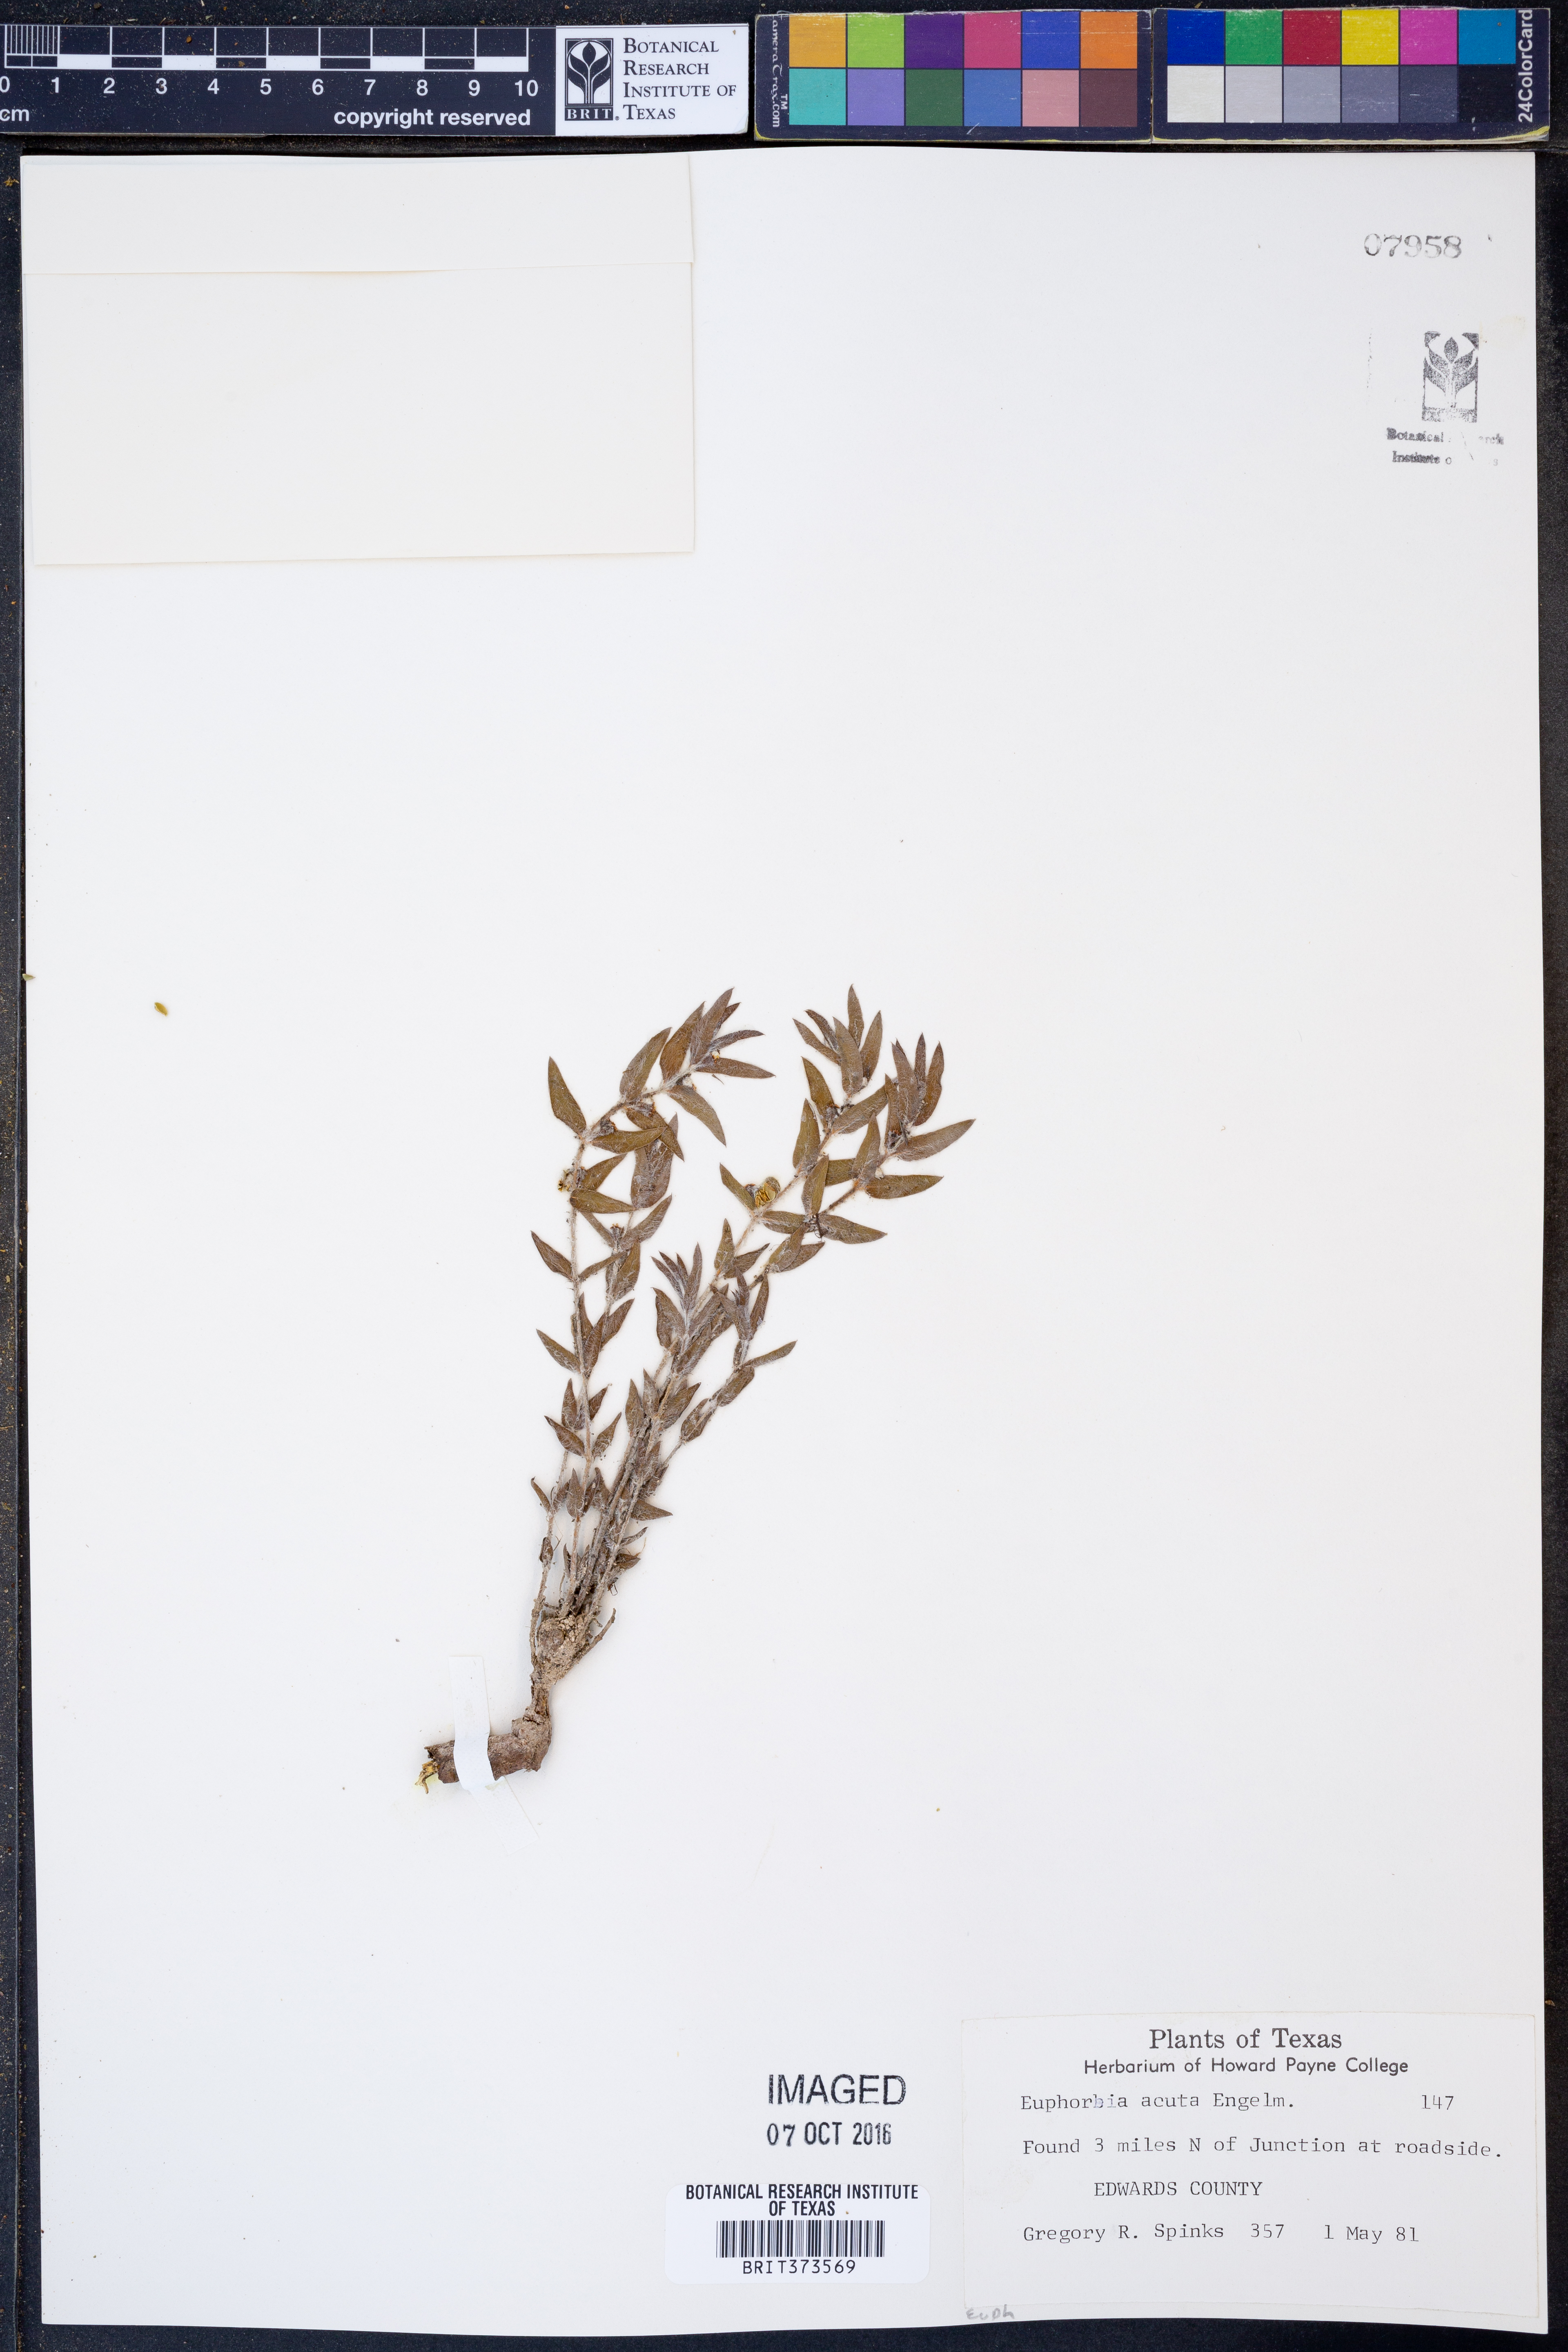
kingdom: Plantae
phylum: Tracheophyta
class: Magnoliopsida
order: Malpighiales
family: Euphorbiaceae
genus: Euphorbia
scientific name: Euphorbia acuta
